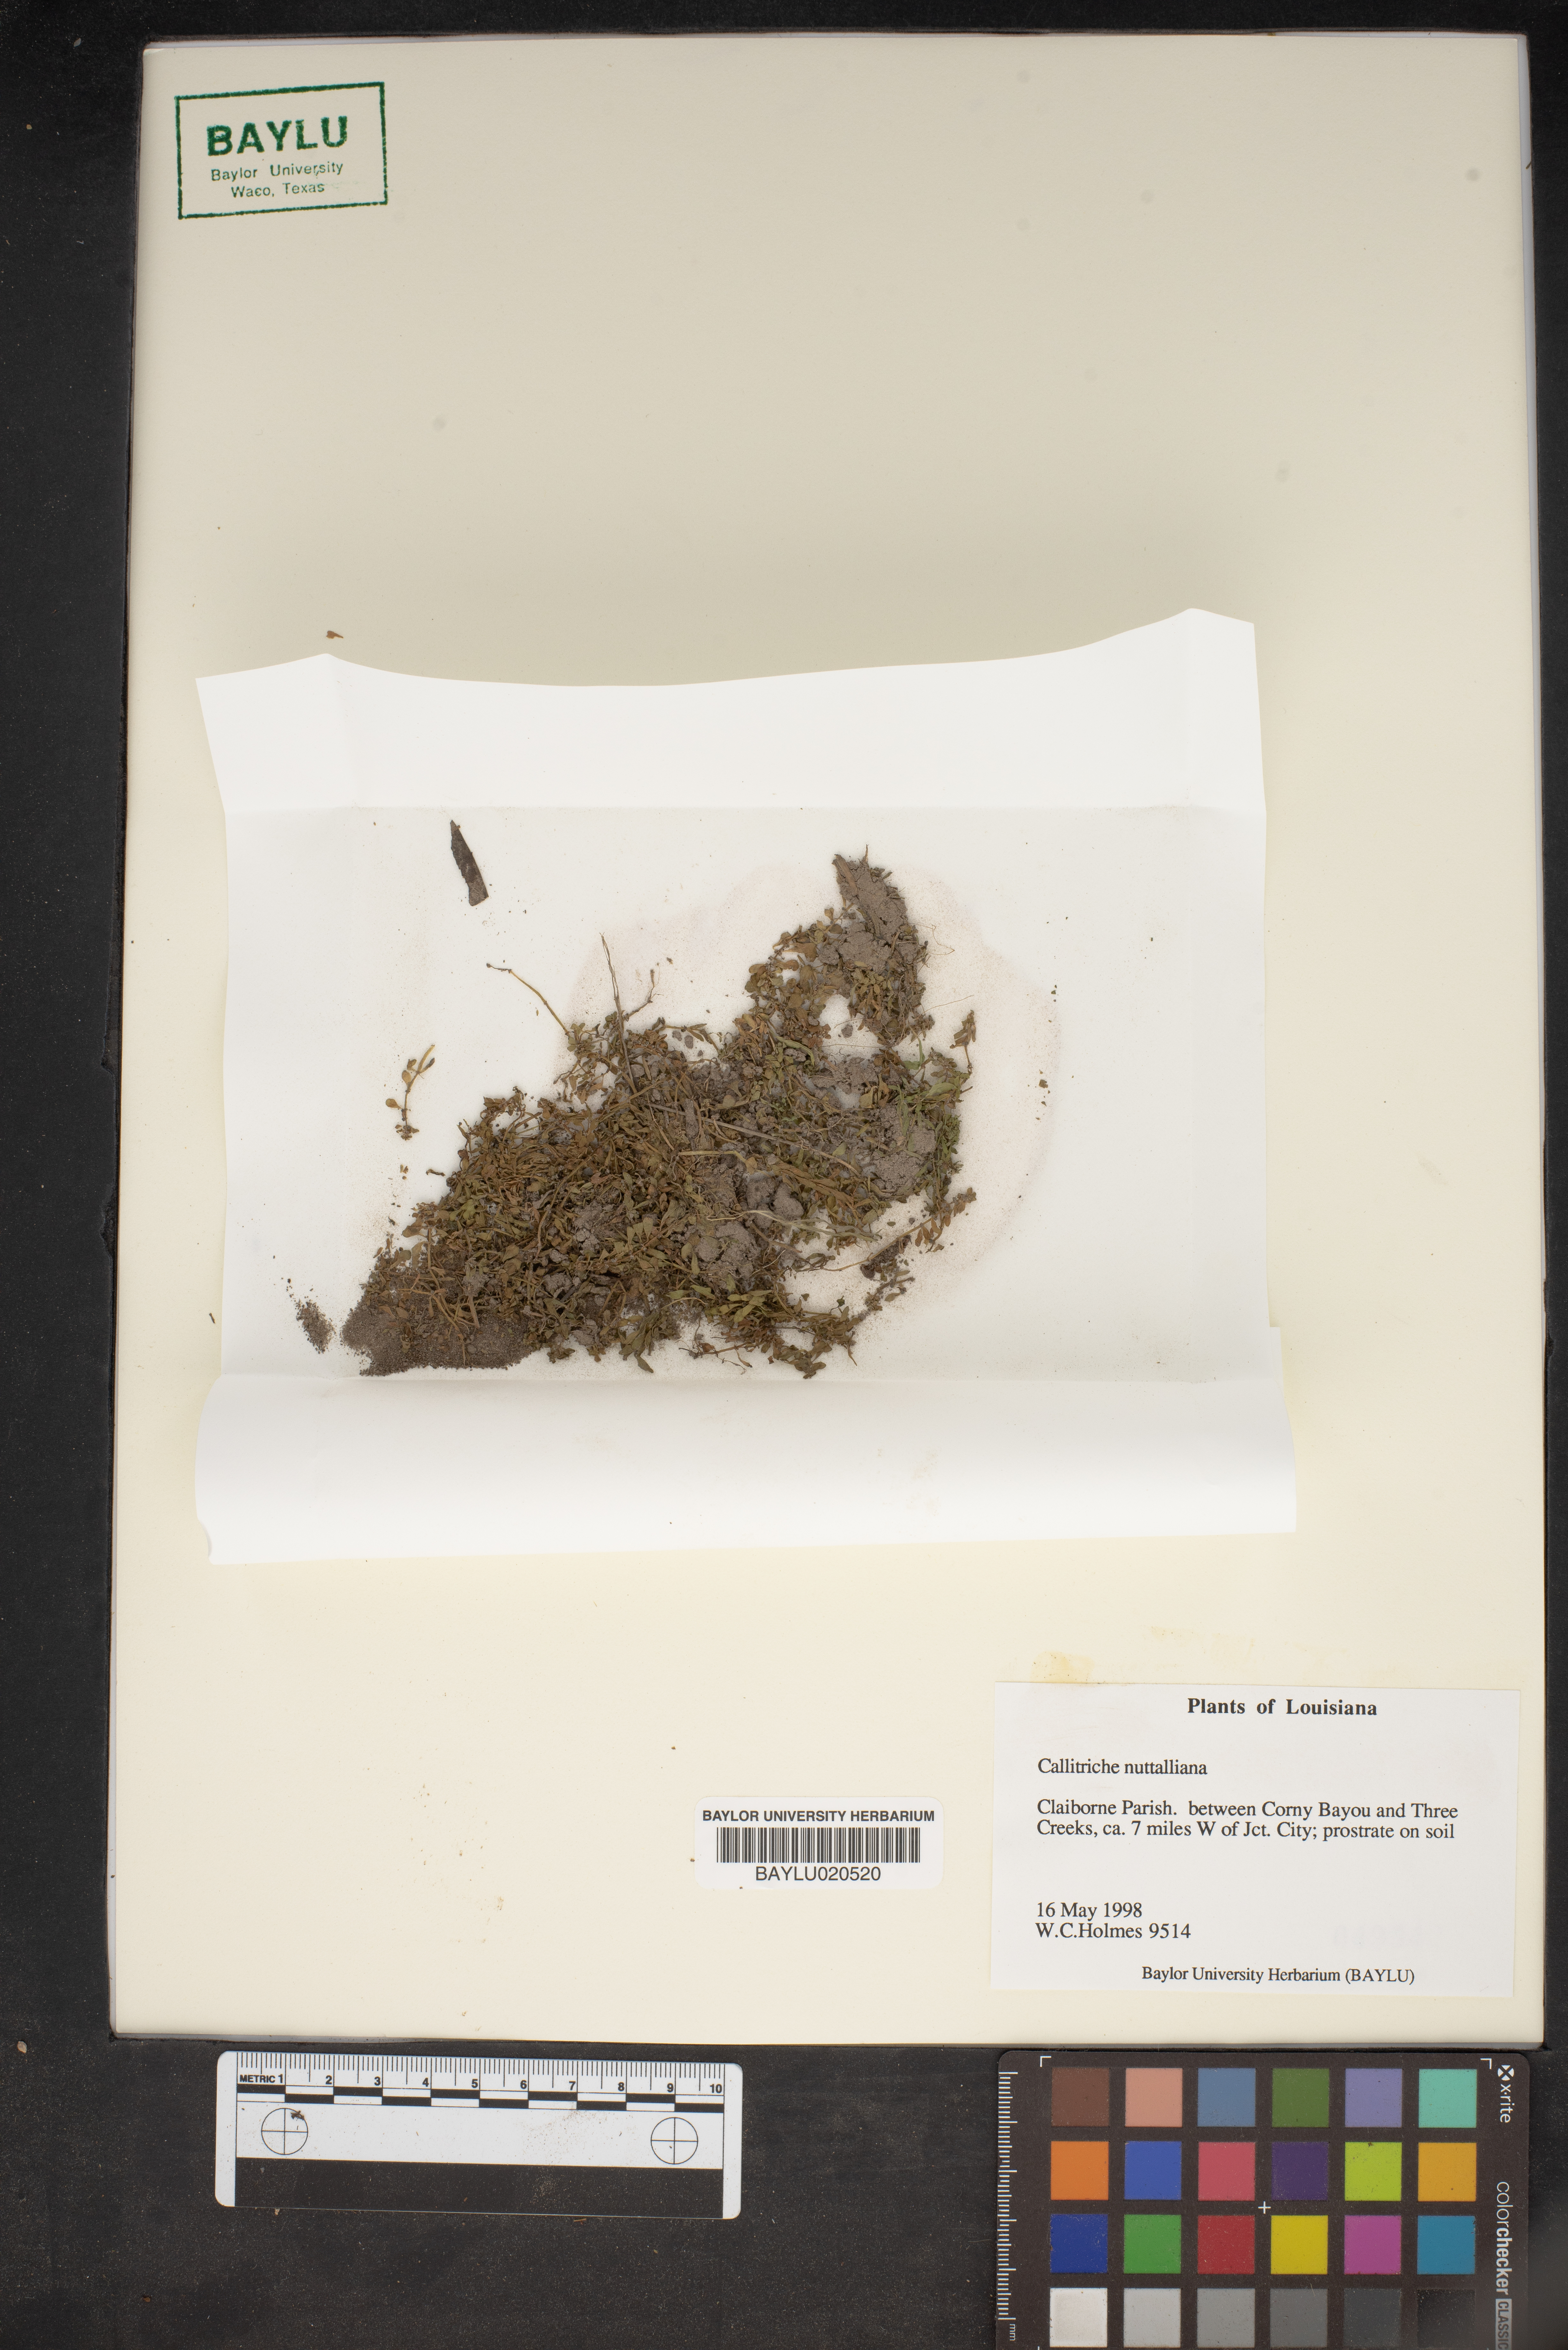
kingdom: Plantae
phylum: Tracheophyta
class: Magnoliopsida
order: Lamiales
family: Plantaginaceae
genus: Callitriche
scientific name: Callitriche pedunculosa
